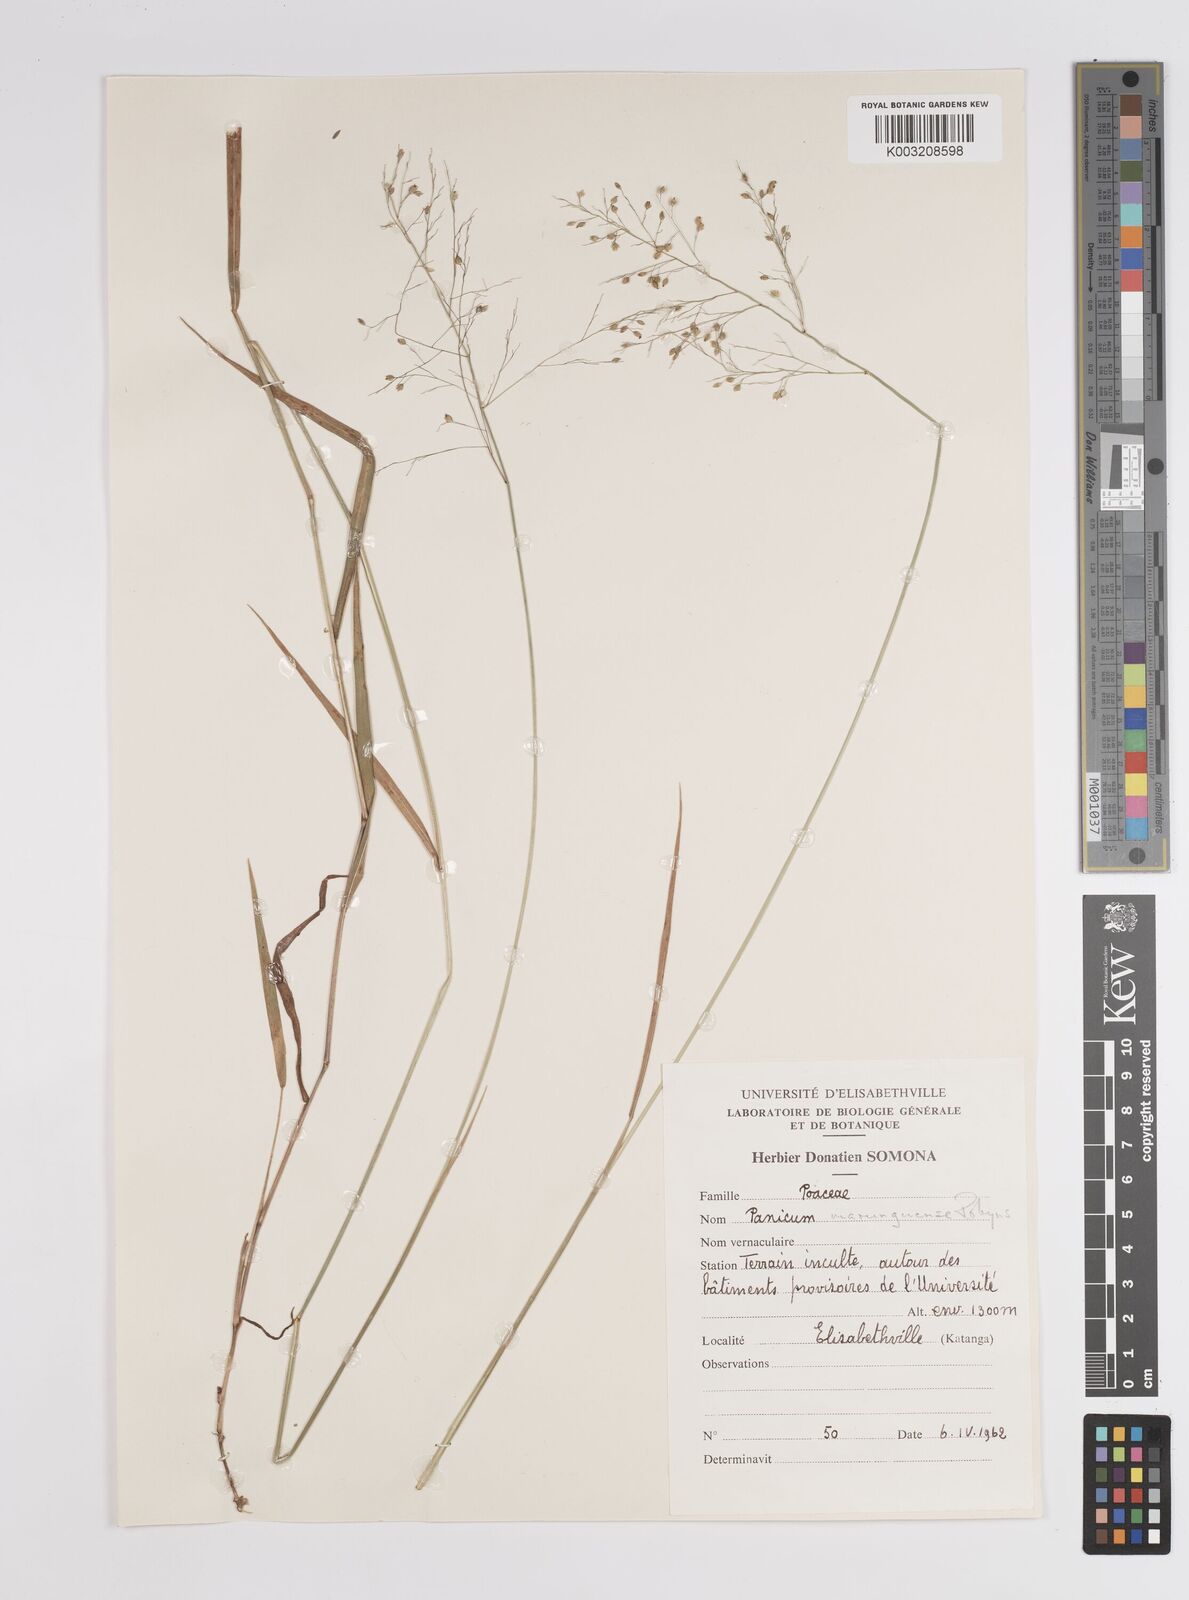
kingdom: Plantae
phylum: Tracheophyta
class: Liliopsida
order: Poales
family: Poaceae
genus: Trichanthecium
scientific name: Trichanthecium nervatum
